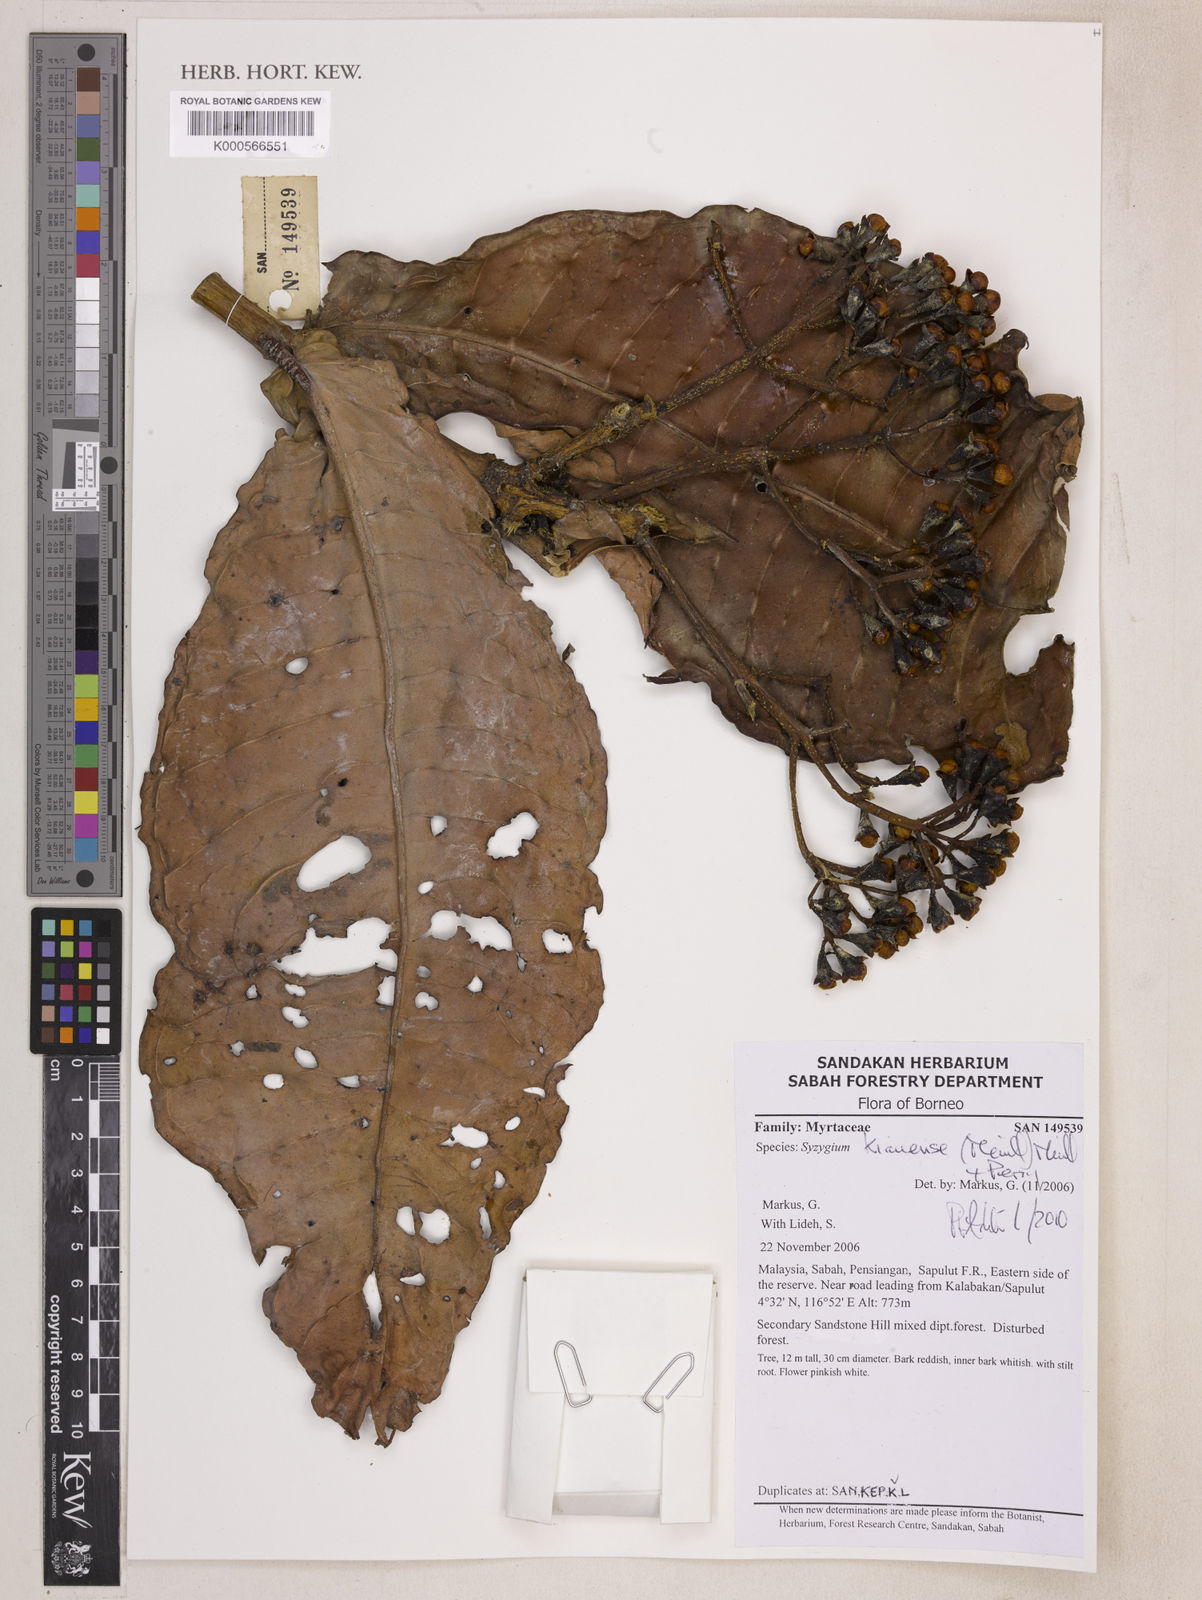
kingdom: Plantae
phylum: Tracheophyta
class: Magnoliopsida
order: Myrtales
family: Myrtaceae
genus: Syzygium
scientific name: Syzygium kiauense
